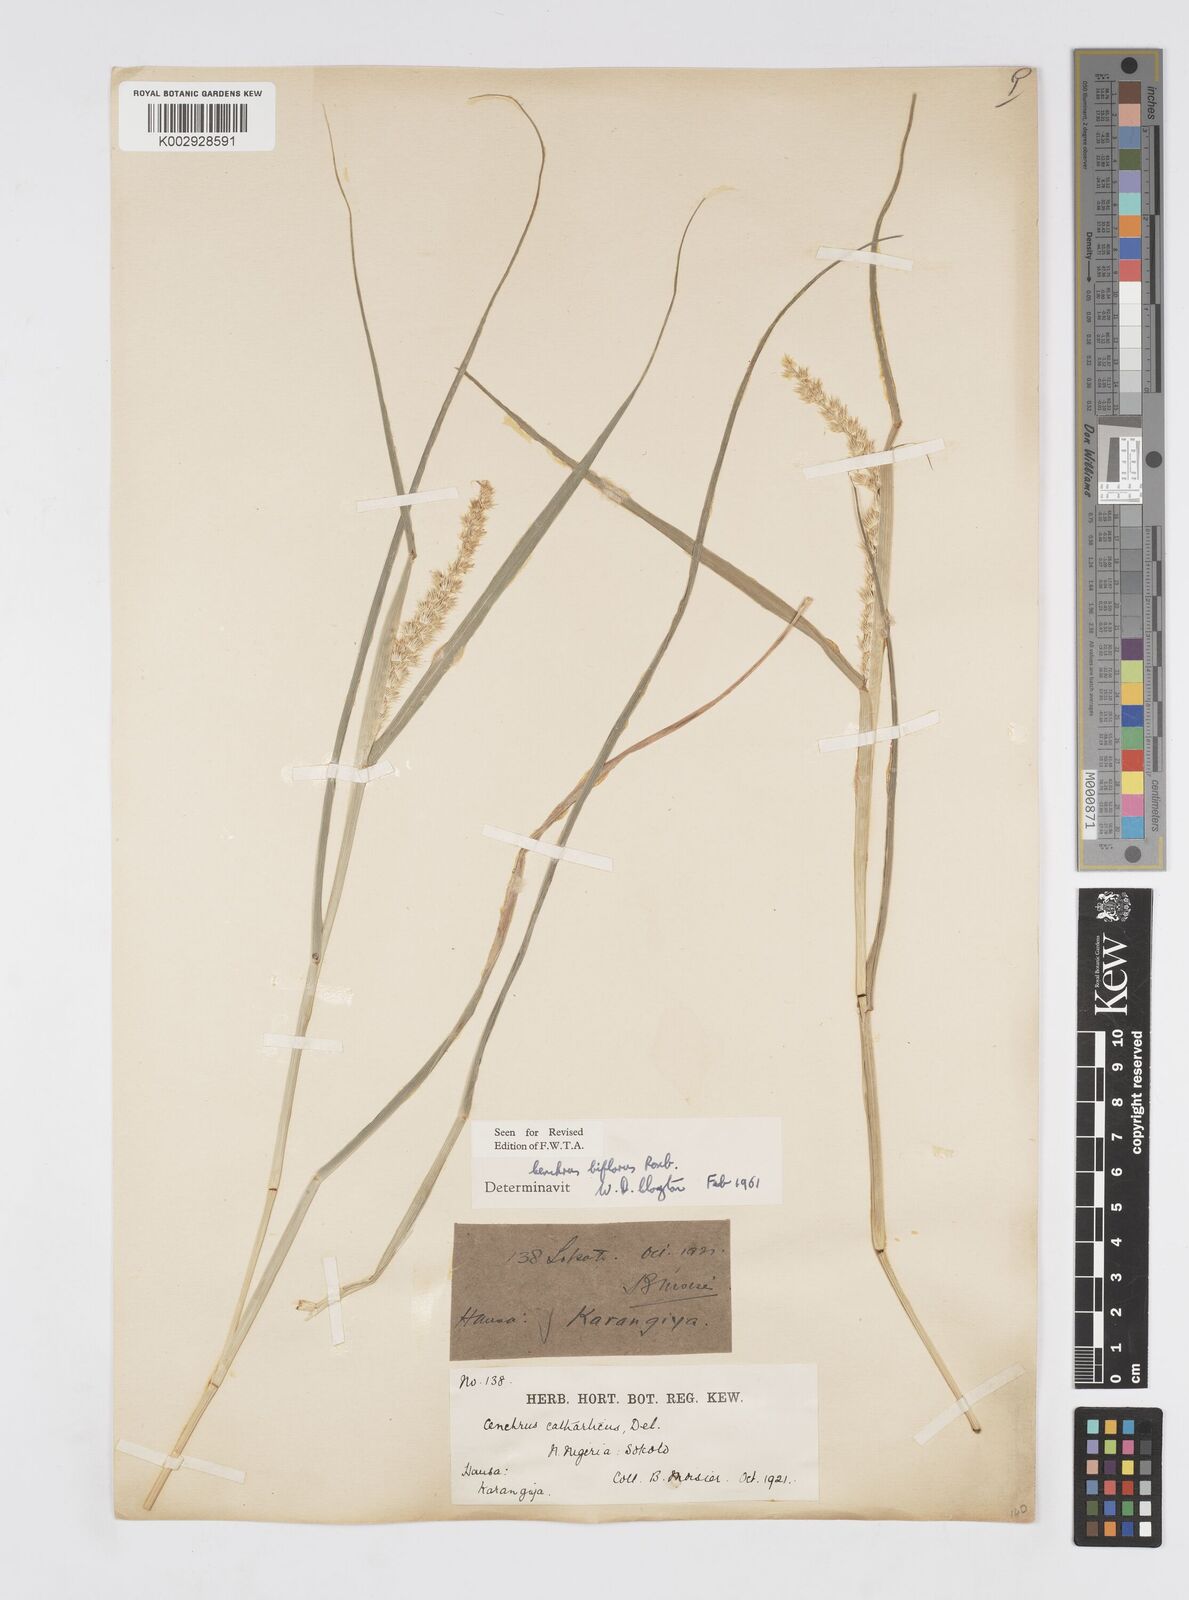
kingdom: Plantae
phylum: Tracheophyta
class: Liliopsida
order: Poales
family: Poaceae
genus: Cenchrus
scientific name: Cenchrus biflorus
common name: Indian sandbur
